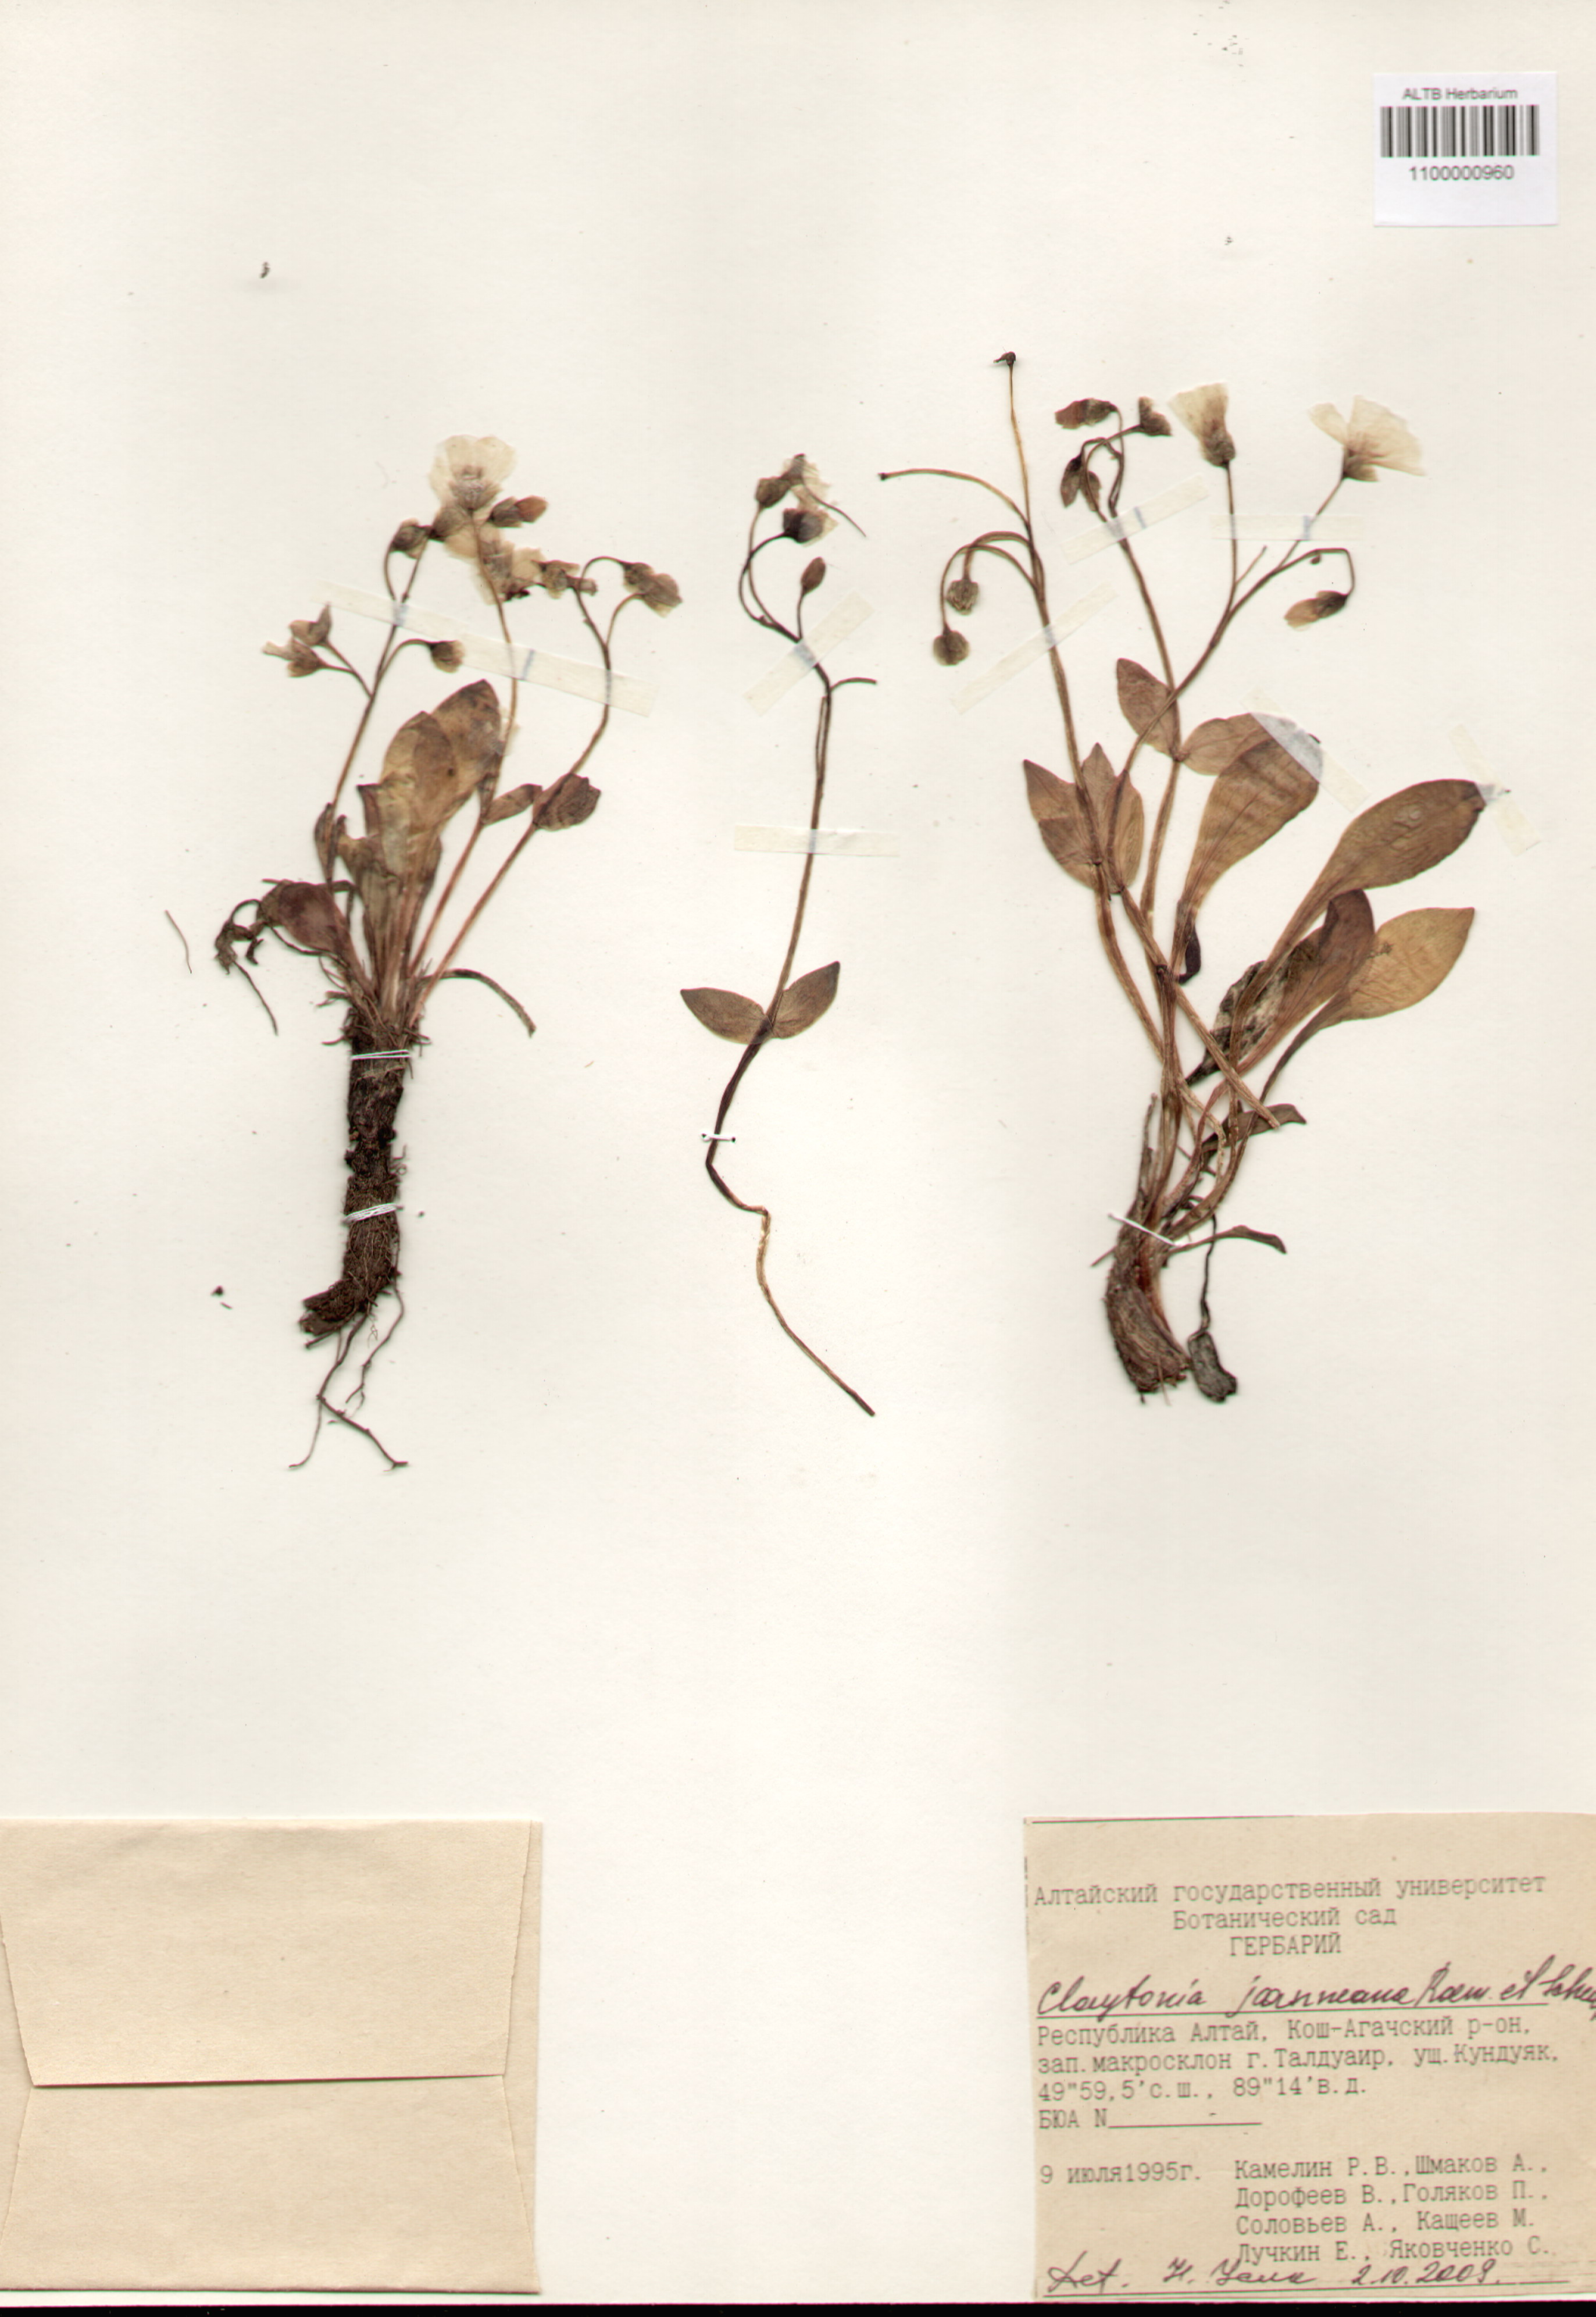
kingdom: Plantae
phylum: Tracheophyta
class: Magnoliopsida
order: Caryophyllales
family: Montiaceae
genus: Claytonia
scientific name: Claytonia joanneana
